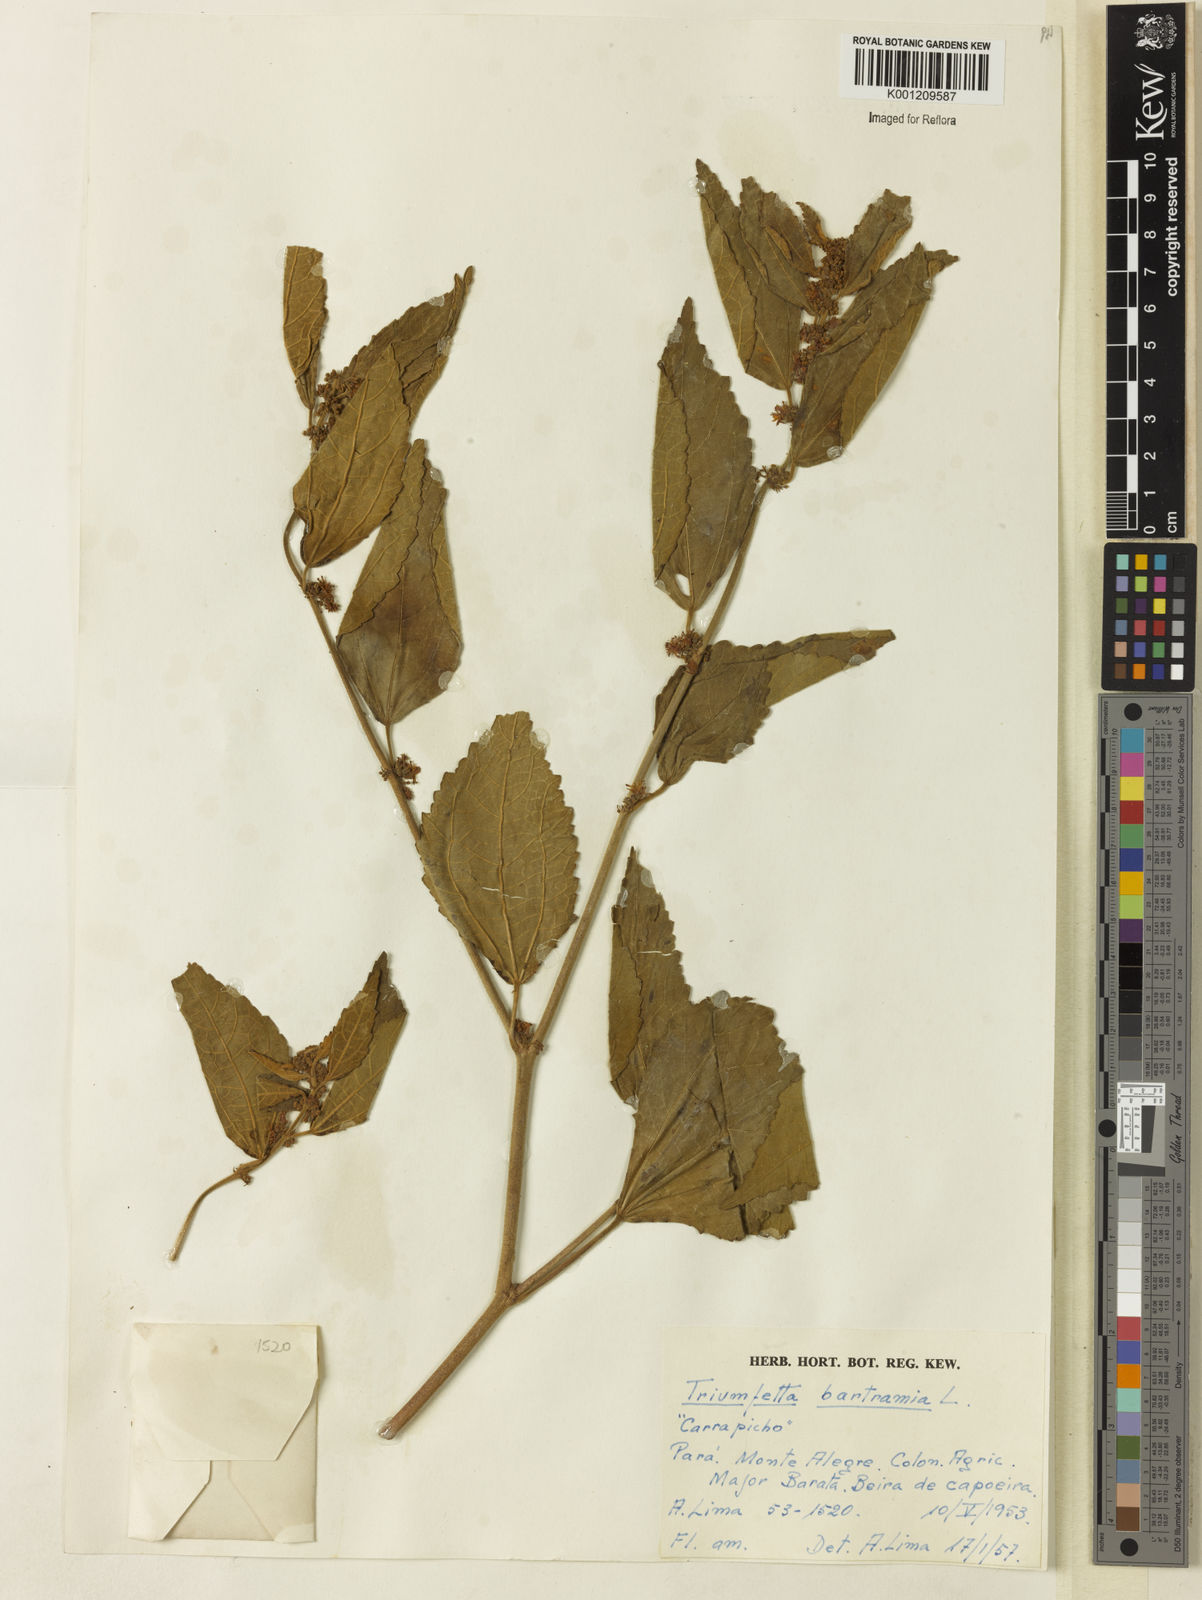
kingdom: Plantae
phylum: Tracheophyta
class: Magnoliopsida
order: Malvales
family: Malvaceae
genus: Triumfetta
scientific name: Triumfetta rhomboidea
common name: Diamond burbark
